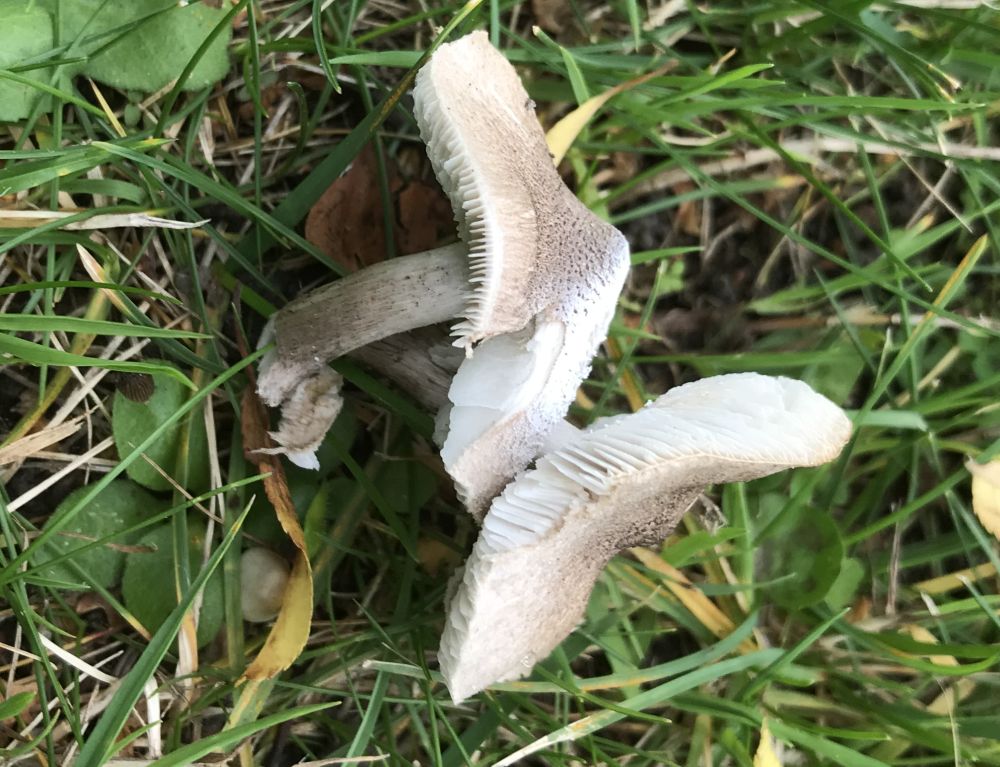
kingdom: Fungi
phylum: Basidiomycota
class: Agaricomycetes
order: Agaricales
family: Tricholomataceae
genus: Tricholoma
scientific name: Tricholoma argyraceum
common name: spids ridderhat
